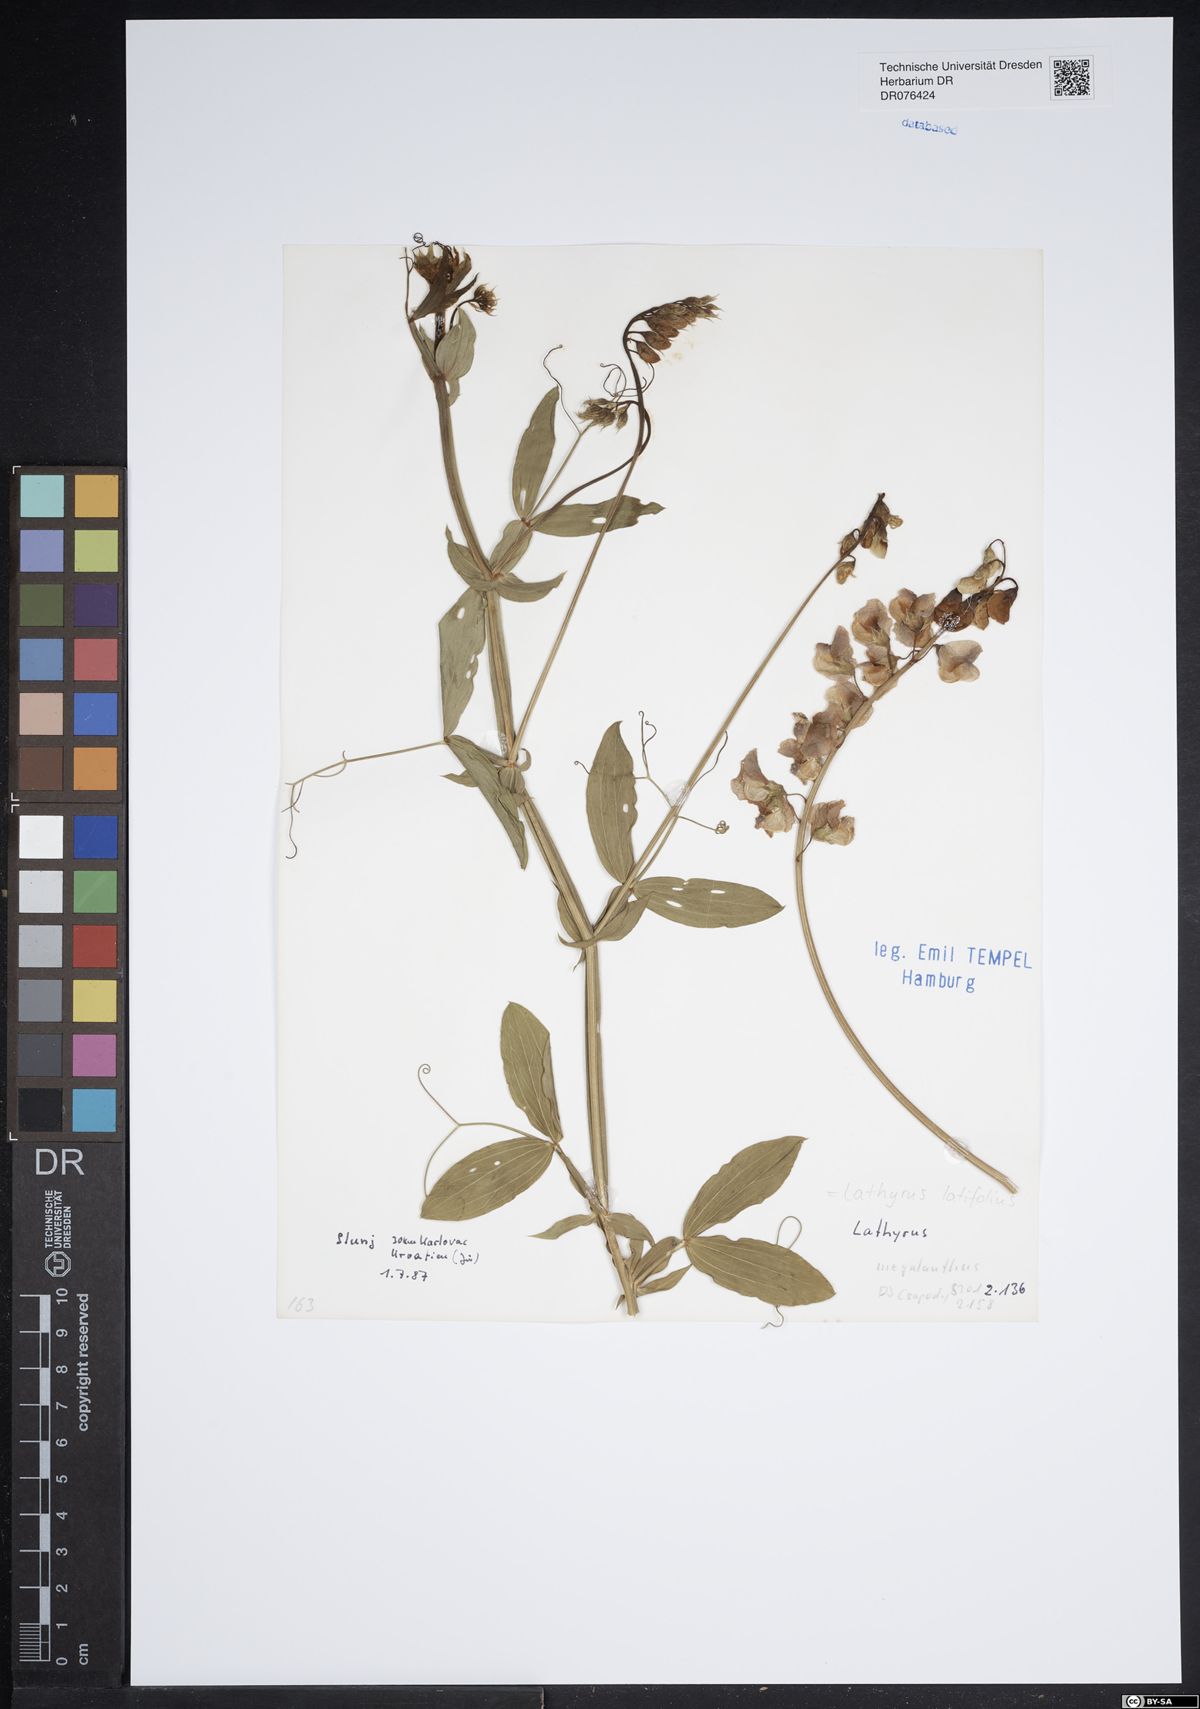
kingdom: Plantae
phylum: Tracheophyta
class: Magnoliopsida
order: Fabales
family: Fabaceae
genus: Lathyrus
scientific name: Lathyrus latifolius
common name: Perennial pea
